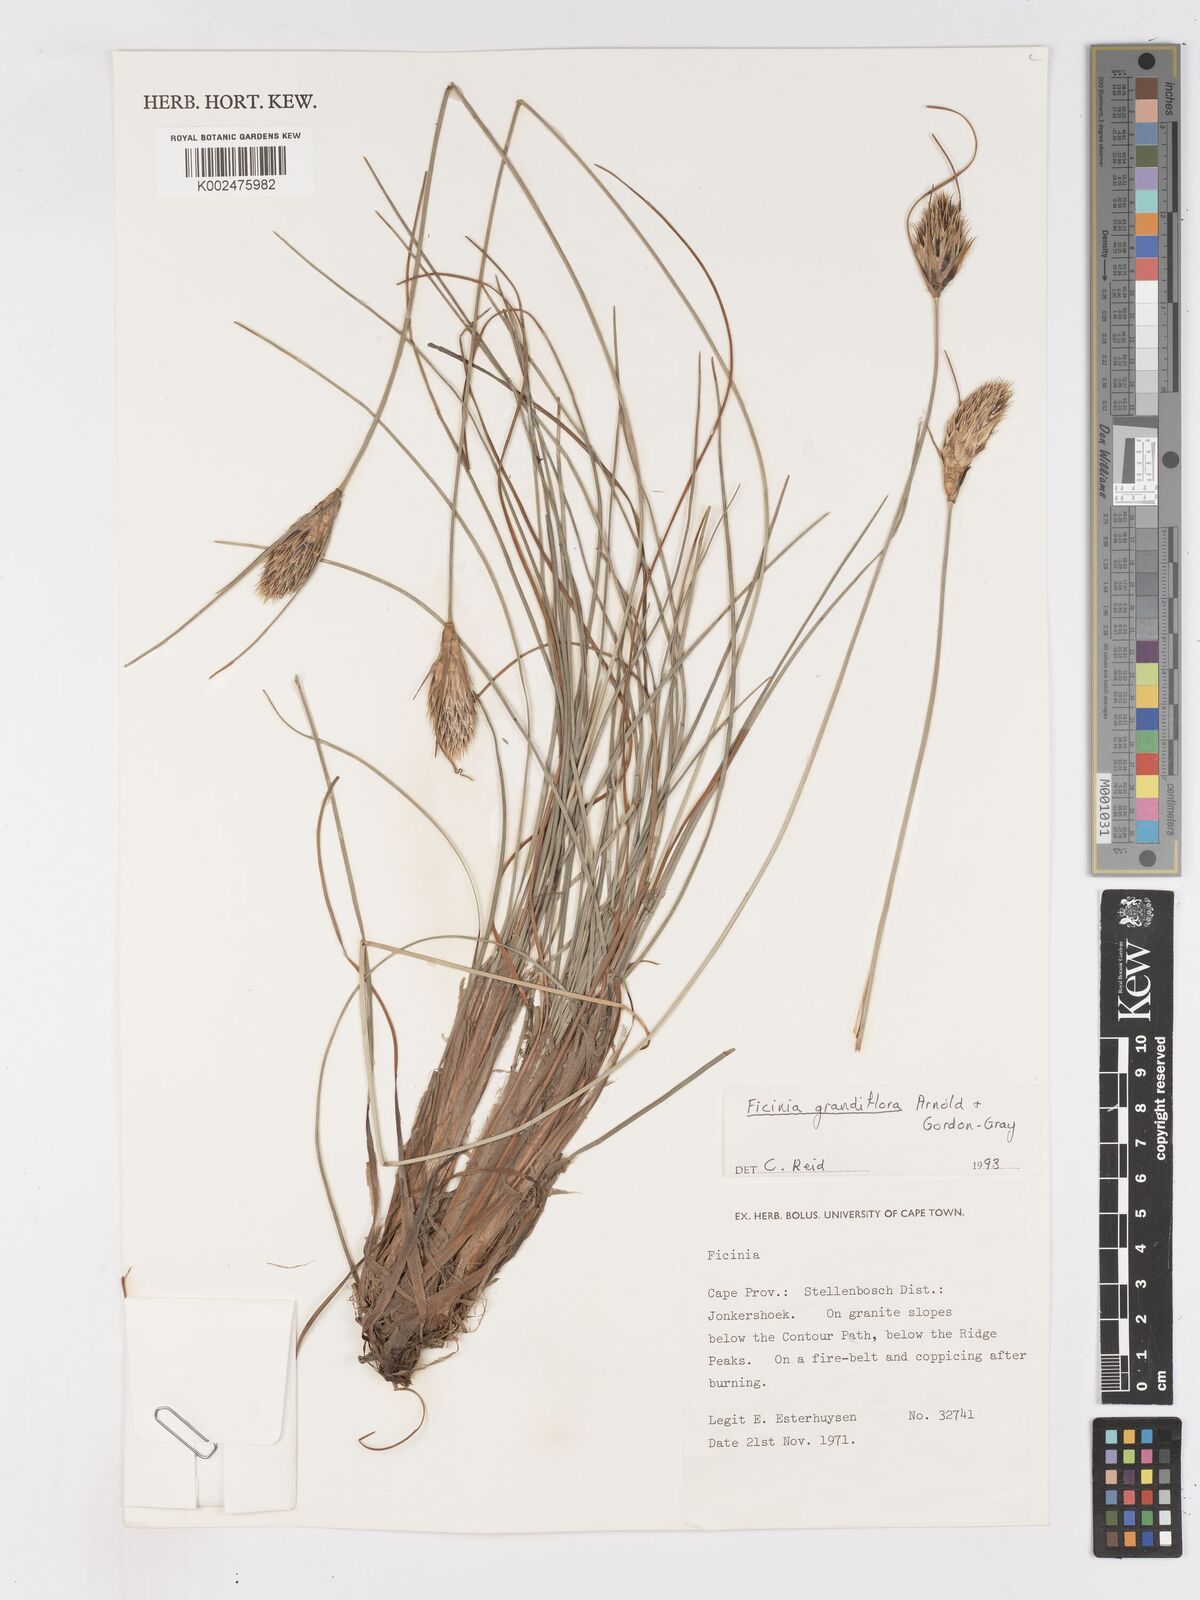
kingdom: Plantae
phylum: Tracheophyta
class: Liliopsida
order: Poales
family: Cyperaceae
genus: Ficinia
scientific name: Ficinia grandiflora
